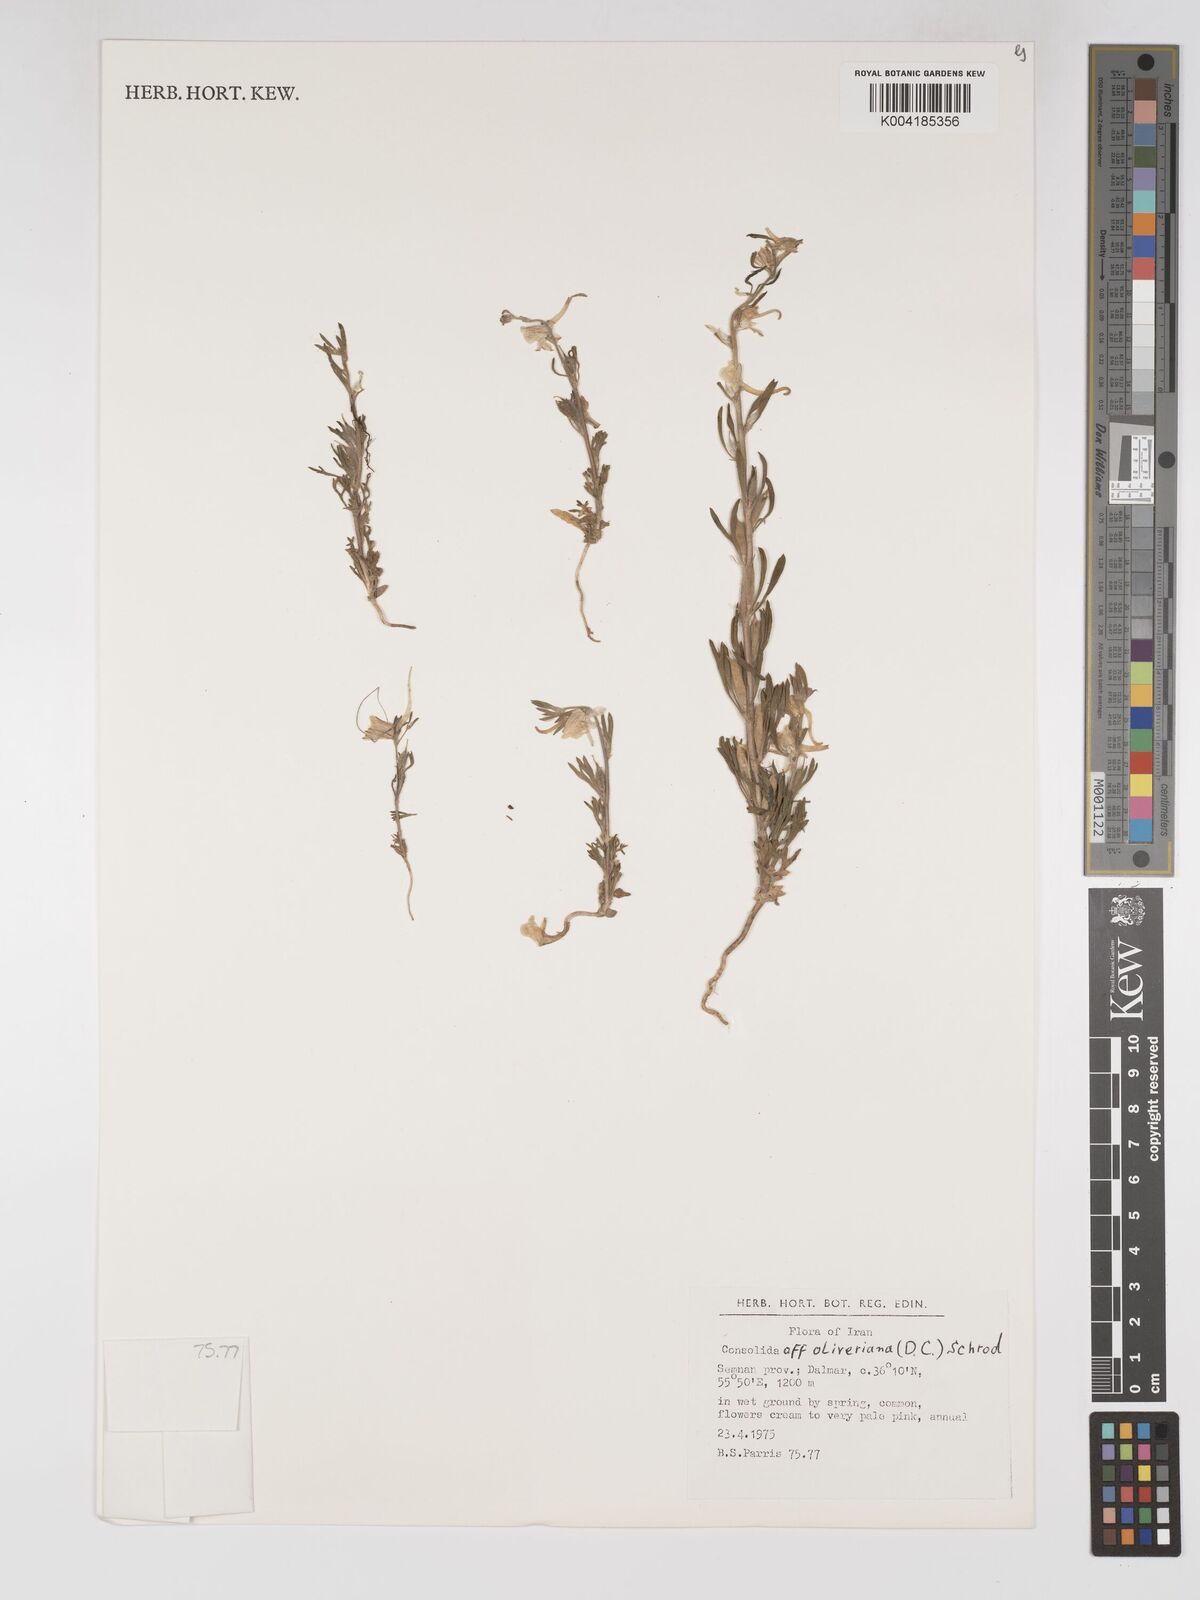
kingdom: Plantae
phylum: Tracheophyta
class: Magnoliopsida
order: Ranunculales
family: Ranunculaceae
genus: Delphinium
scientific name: Delphinium oliverianum
